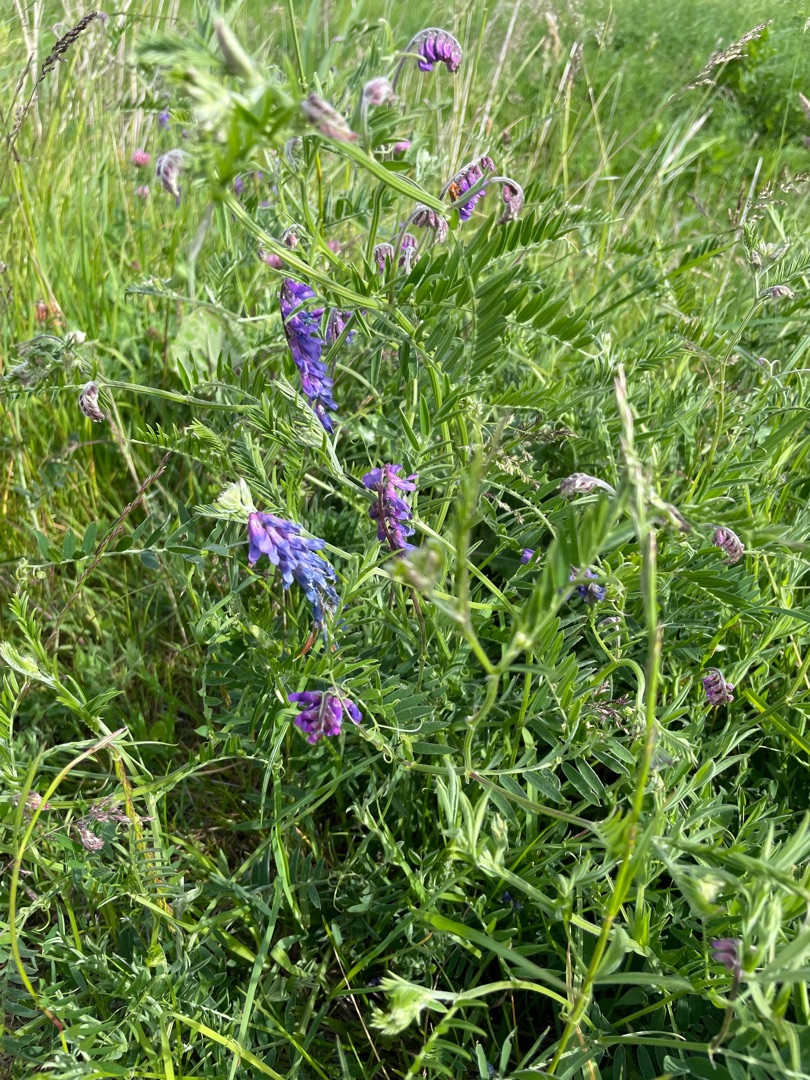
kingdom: Plantae
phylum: Tracheophyta
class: Magnoliopsida
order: Fabales
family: Fabaceae
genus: Vicia
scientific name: Vicia cracca
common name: Muse-vikke
